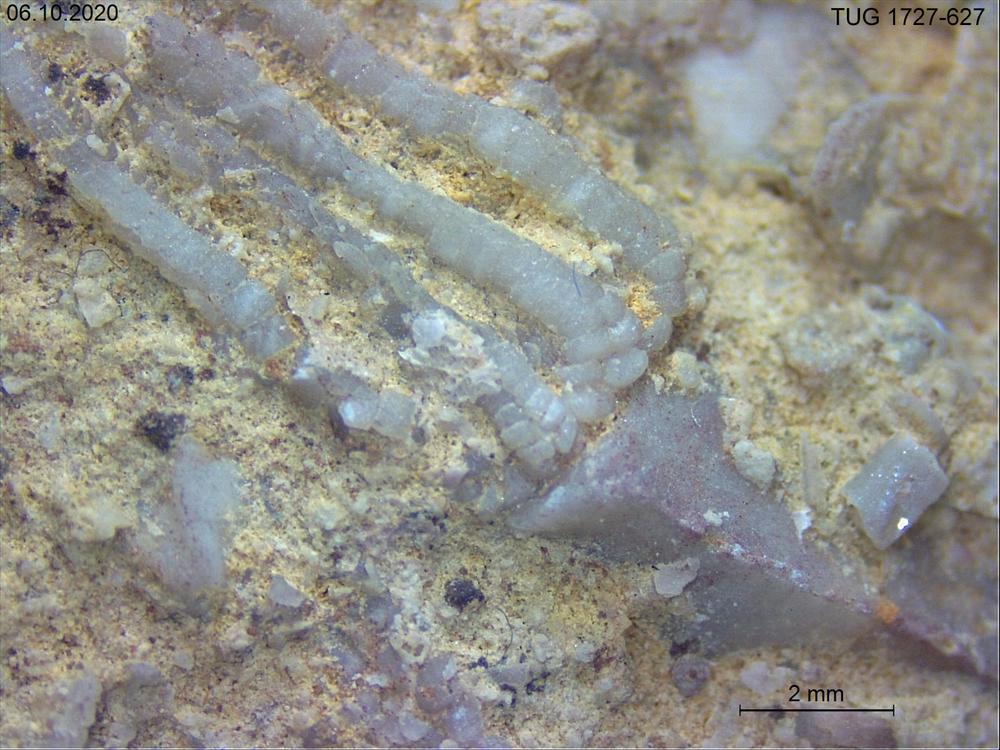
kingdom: Animalia
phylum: Echinodermata
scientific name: Echinodermata
